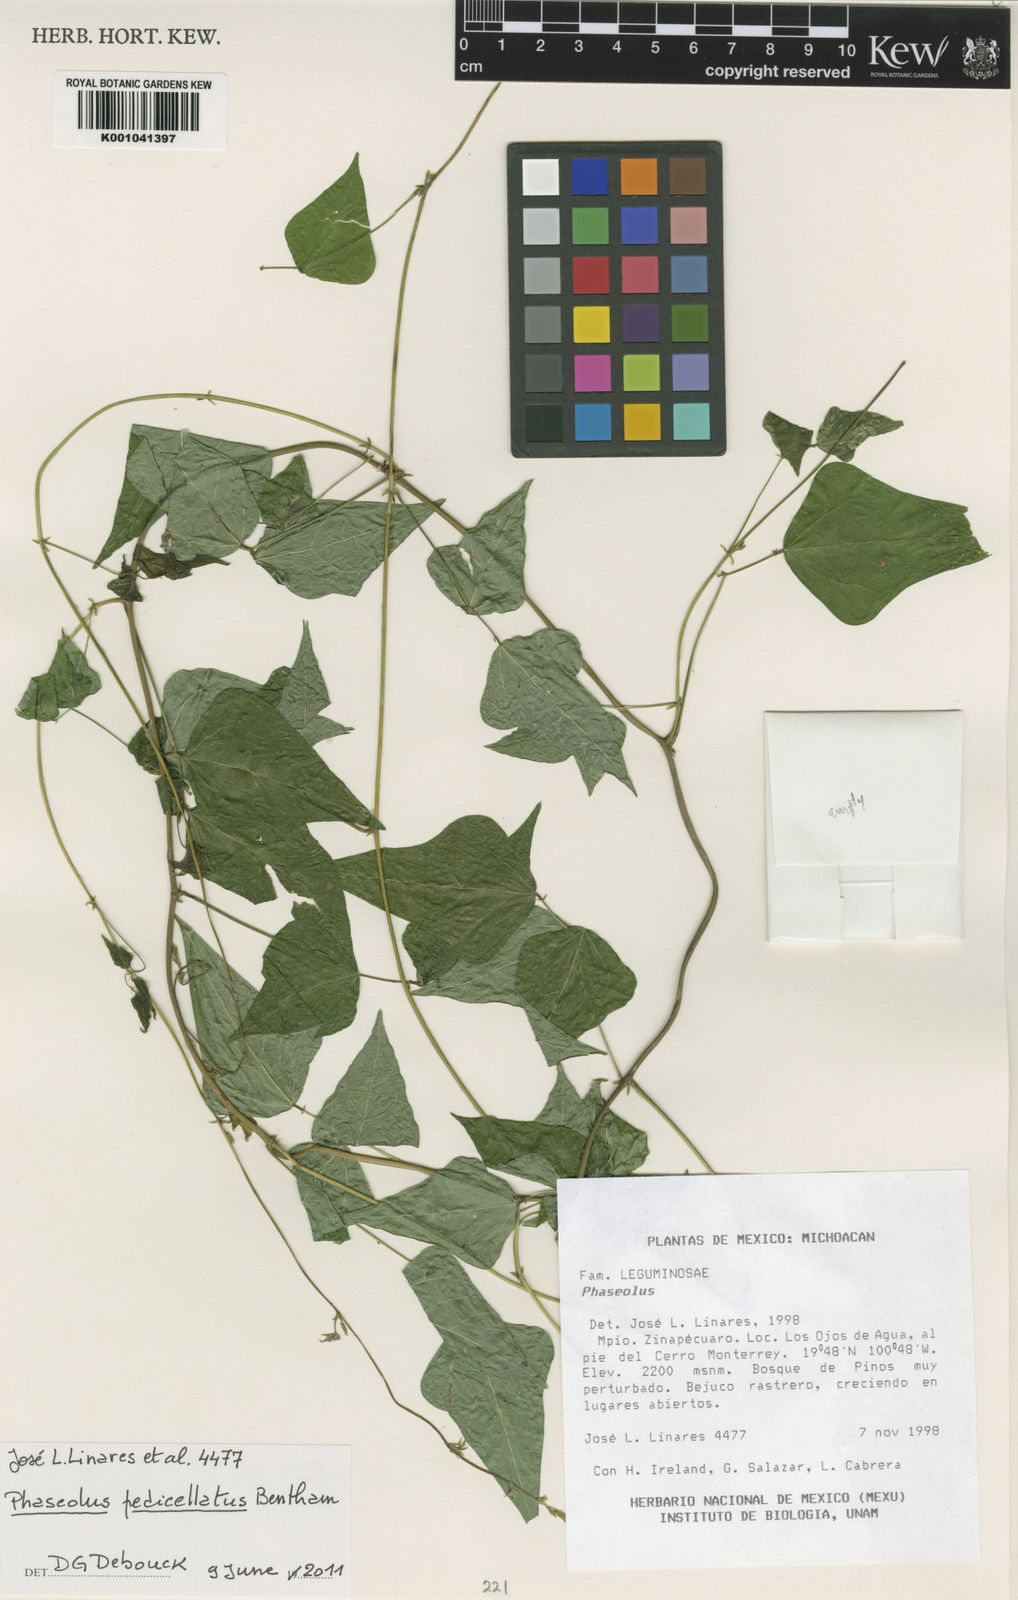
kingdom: Plantae
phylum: Tracheophyta
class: Magnoliopsida
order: Fabales
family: Fabaceae
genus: Phaseolus
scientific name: Phaseolus pedicellatus
